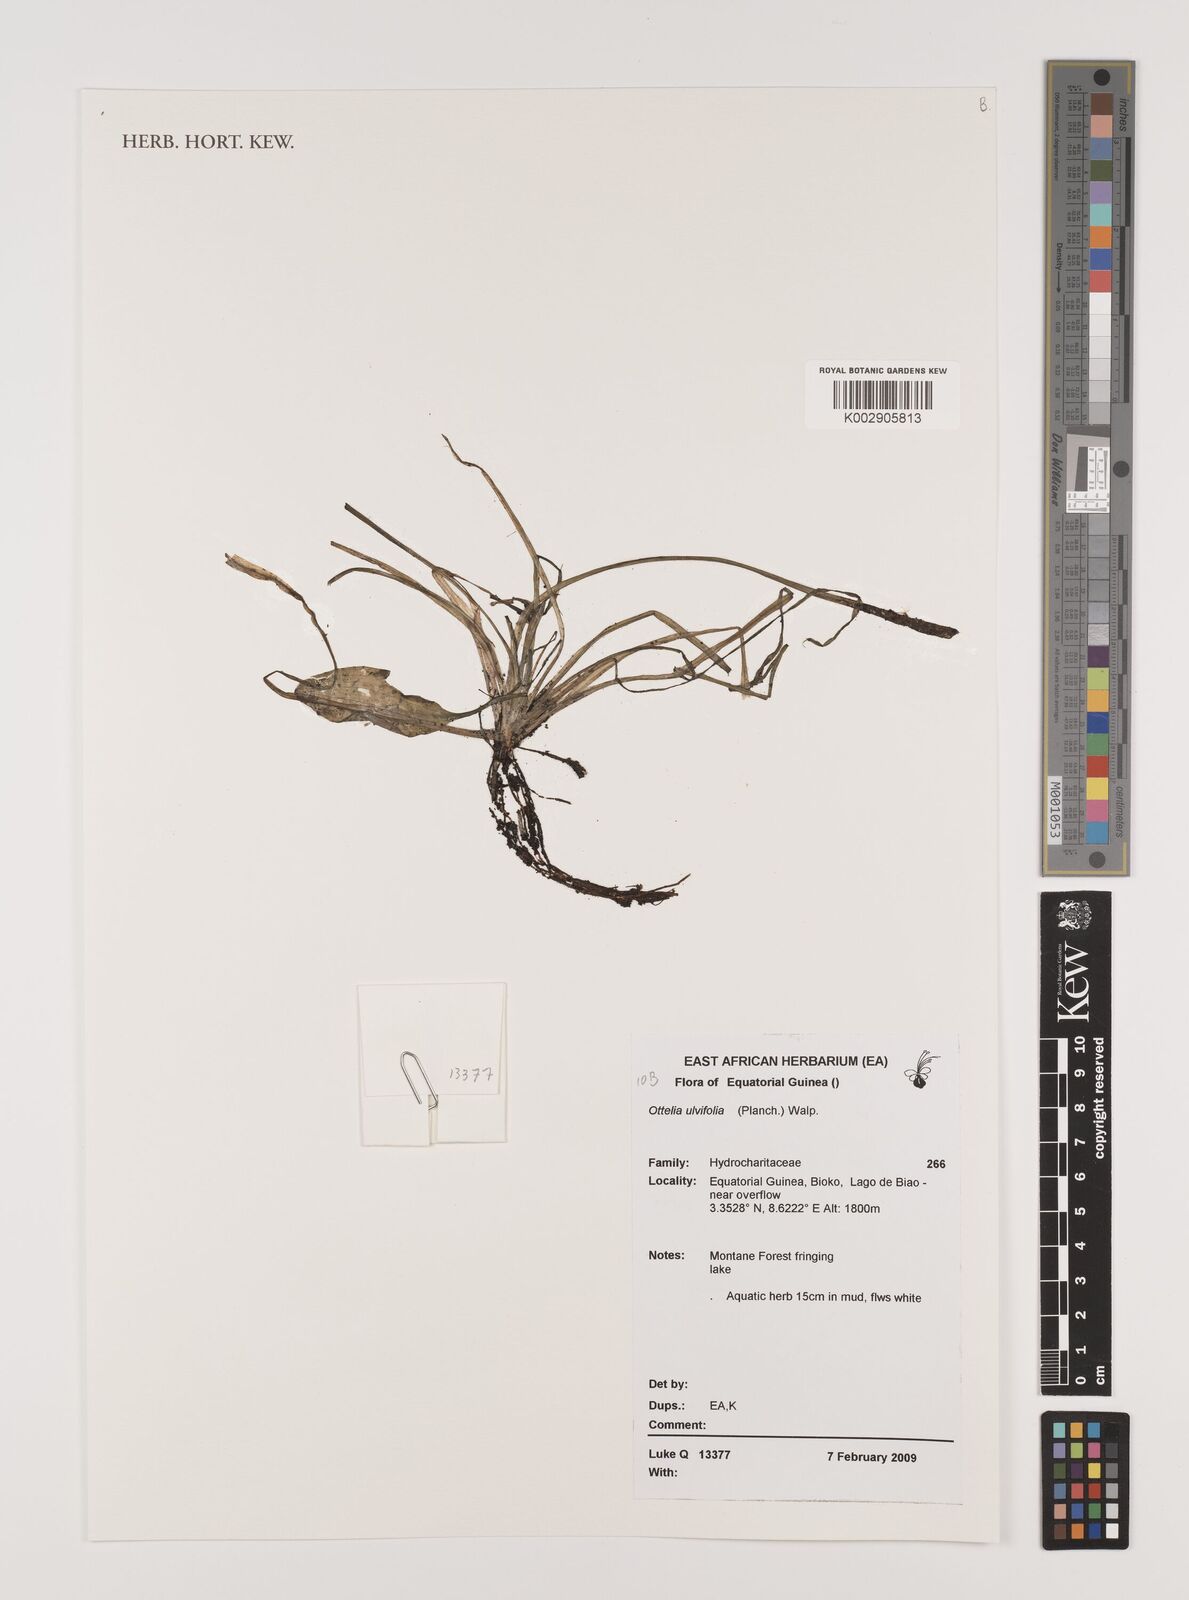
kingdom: Plantae
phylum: Tracheophyta
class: Liliopsida
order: Alismatales
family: Hydrocharitaceae
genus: Ottelia
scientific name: Ottelia ulvifolia
